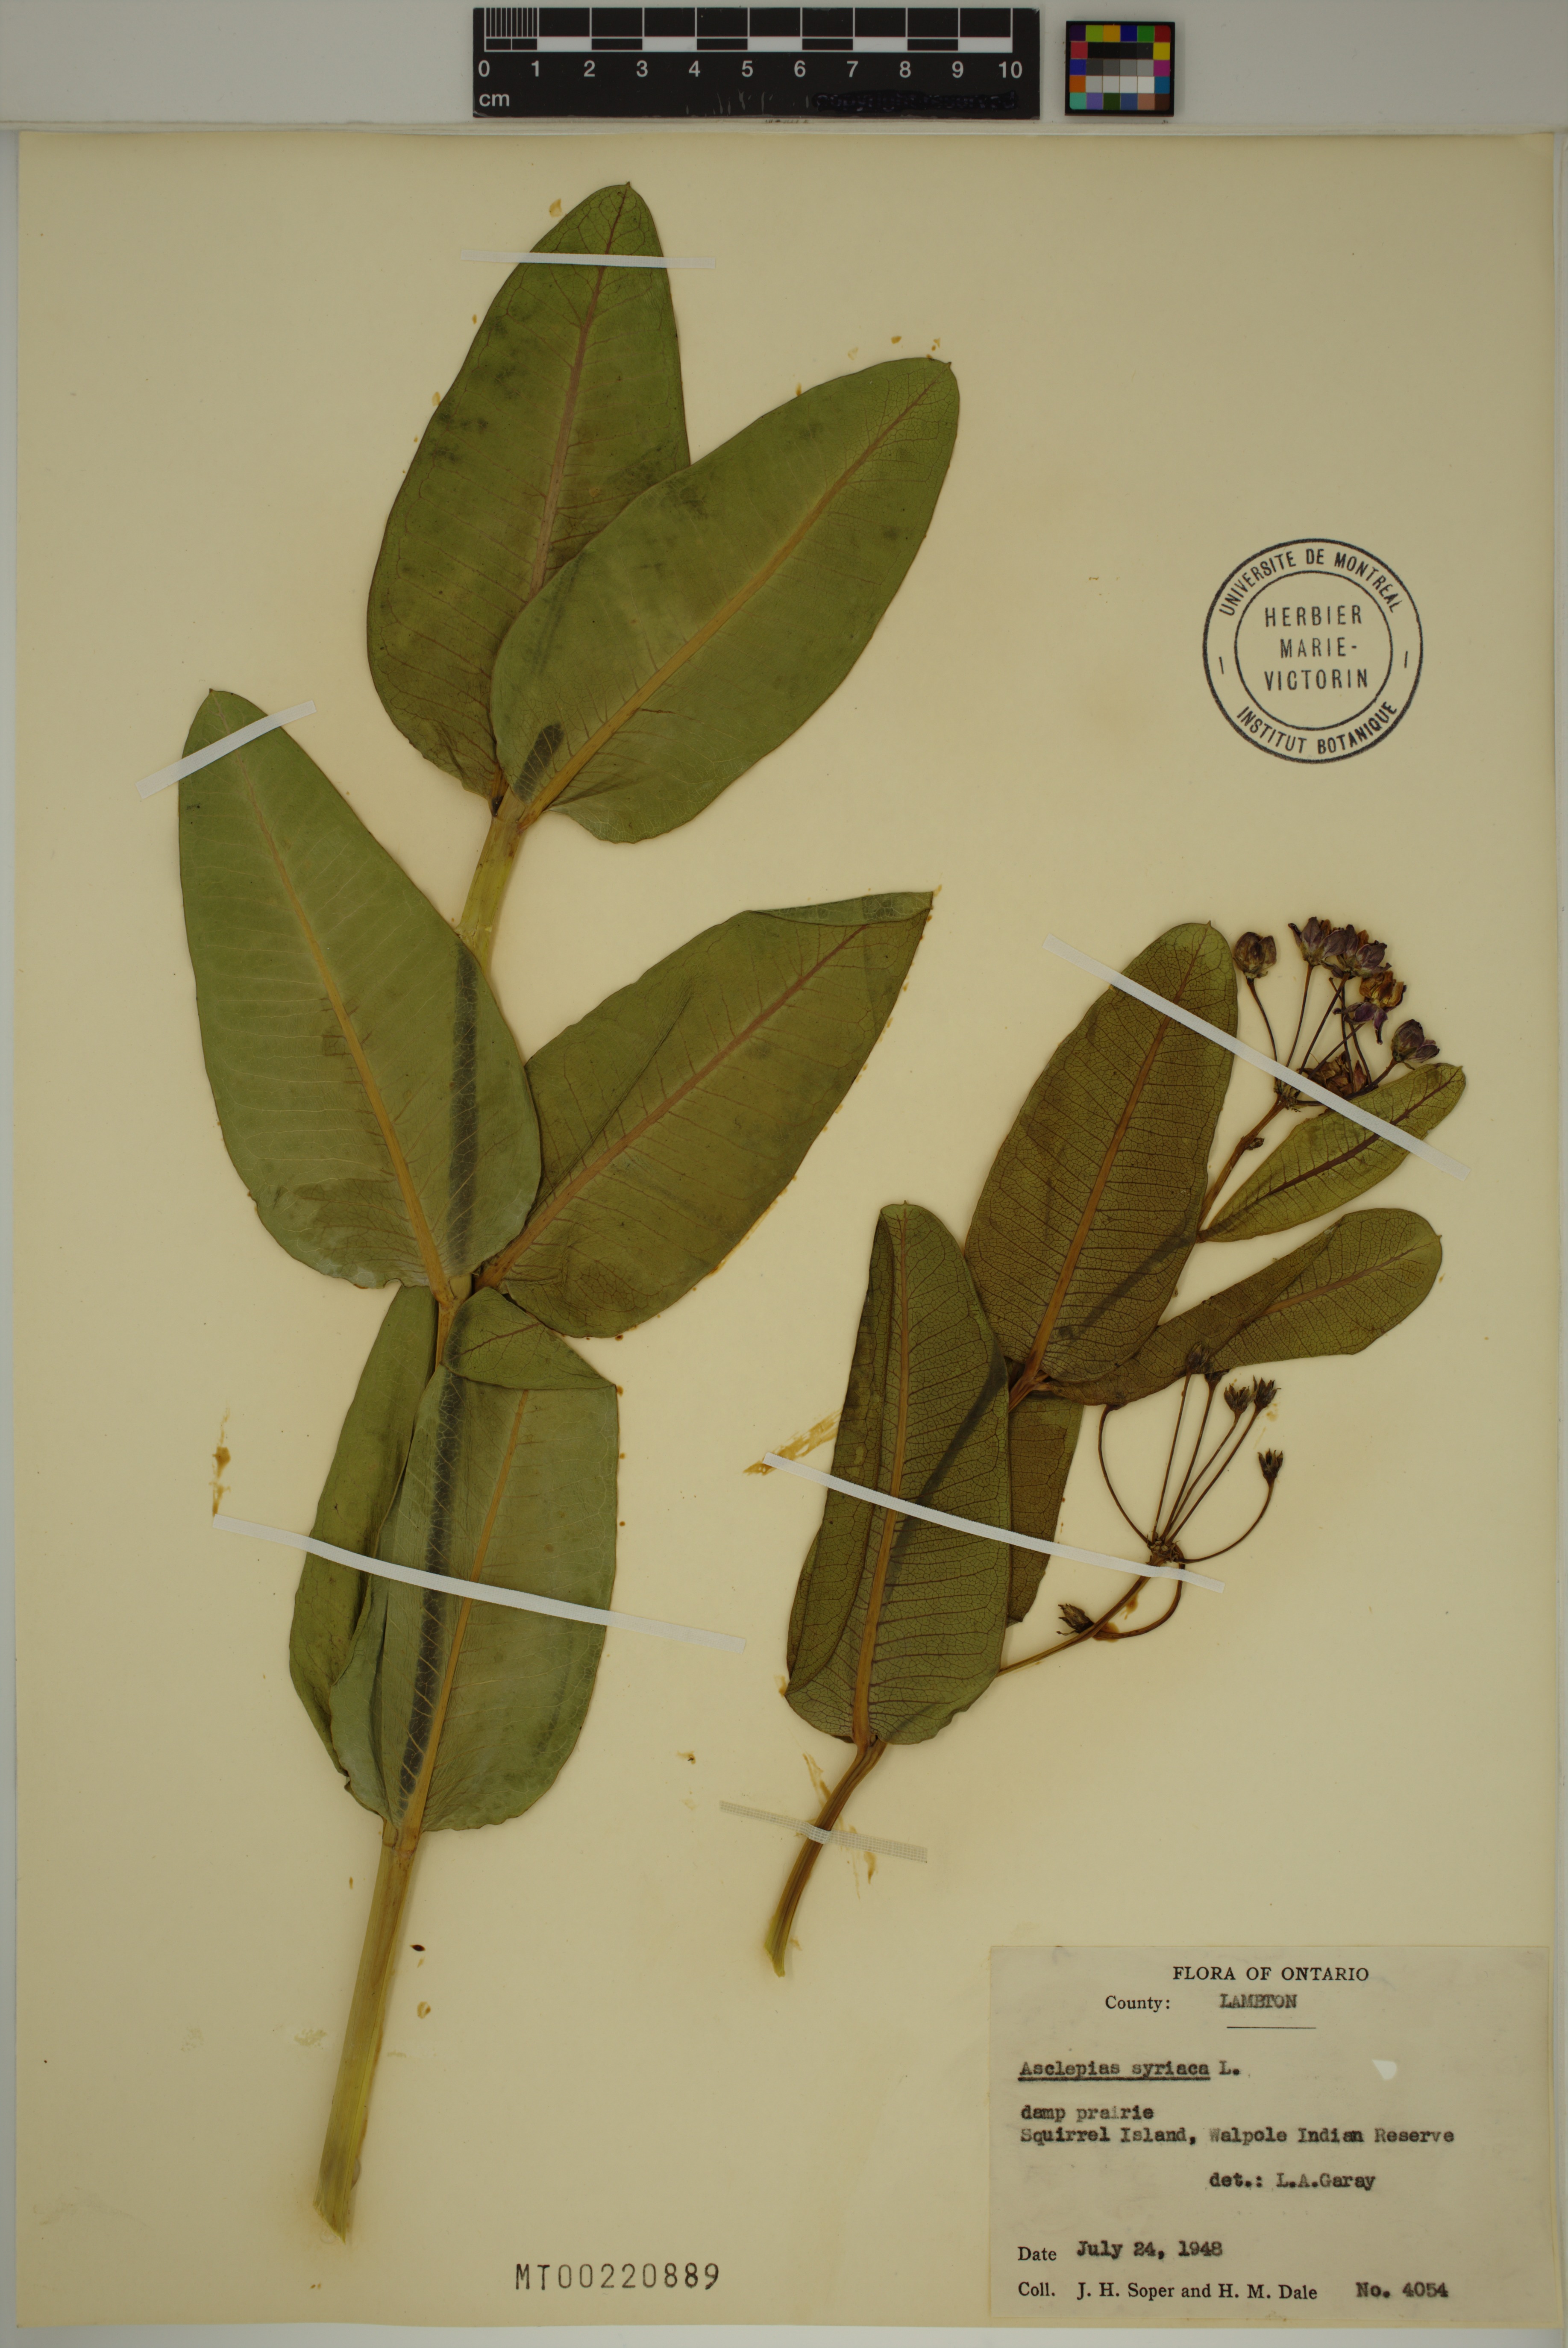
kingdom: Plantae
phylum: Tracheophyta
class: Magnoliopsida
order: Gentianales
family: Apocynaceae
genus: Asclepias
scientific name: Asclepias syriaca
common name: Common milkweed
